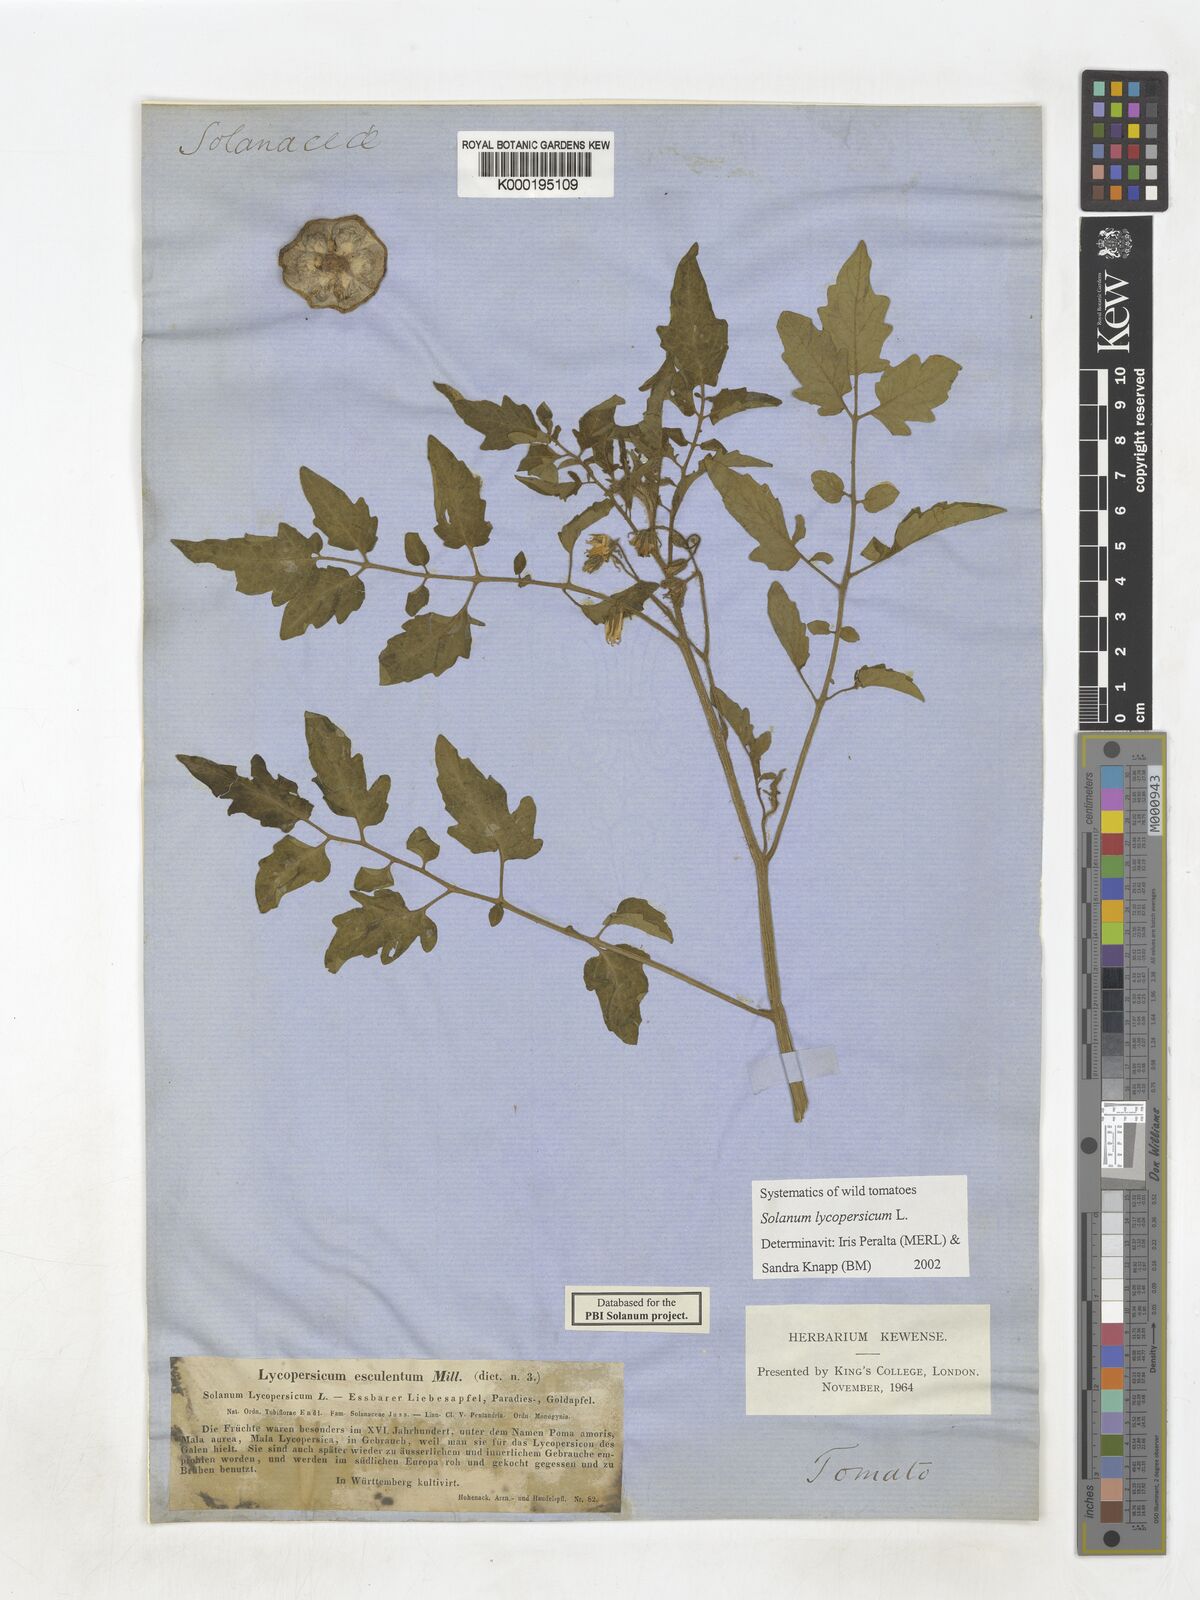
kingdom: Plantae
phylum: Tracheophyta
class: Magnoliopsida
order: Solanales
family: Solanaceae
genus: Solanum
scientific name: Solanum lycopersicum
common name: Garden tomato
